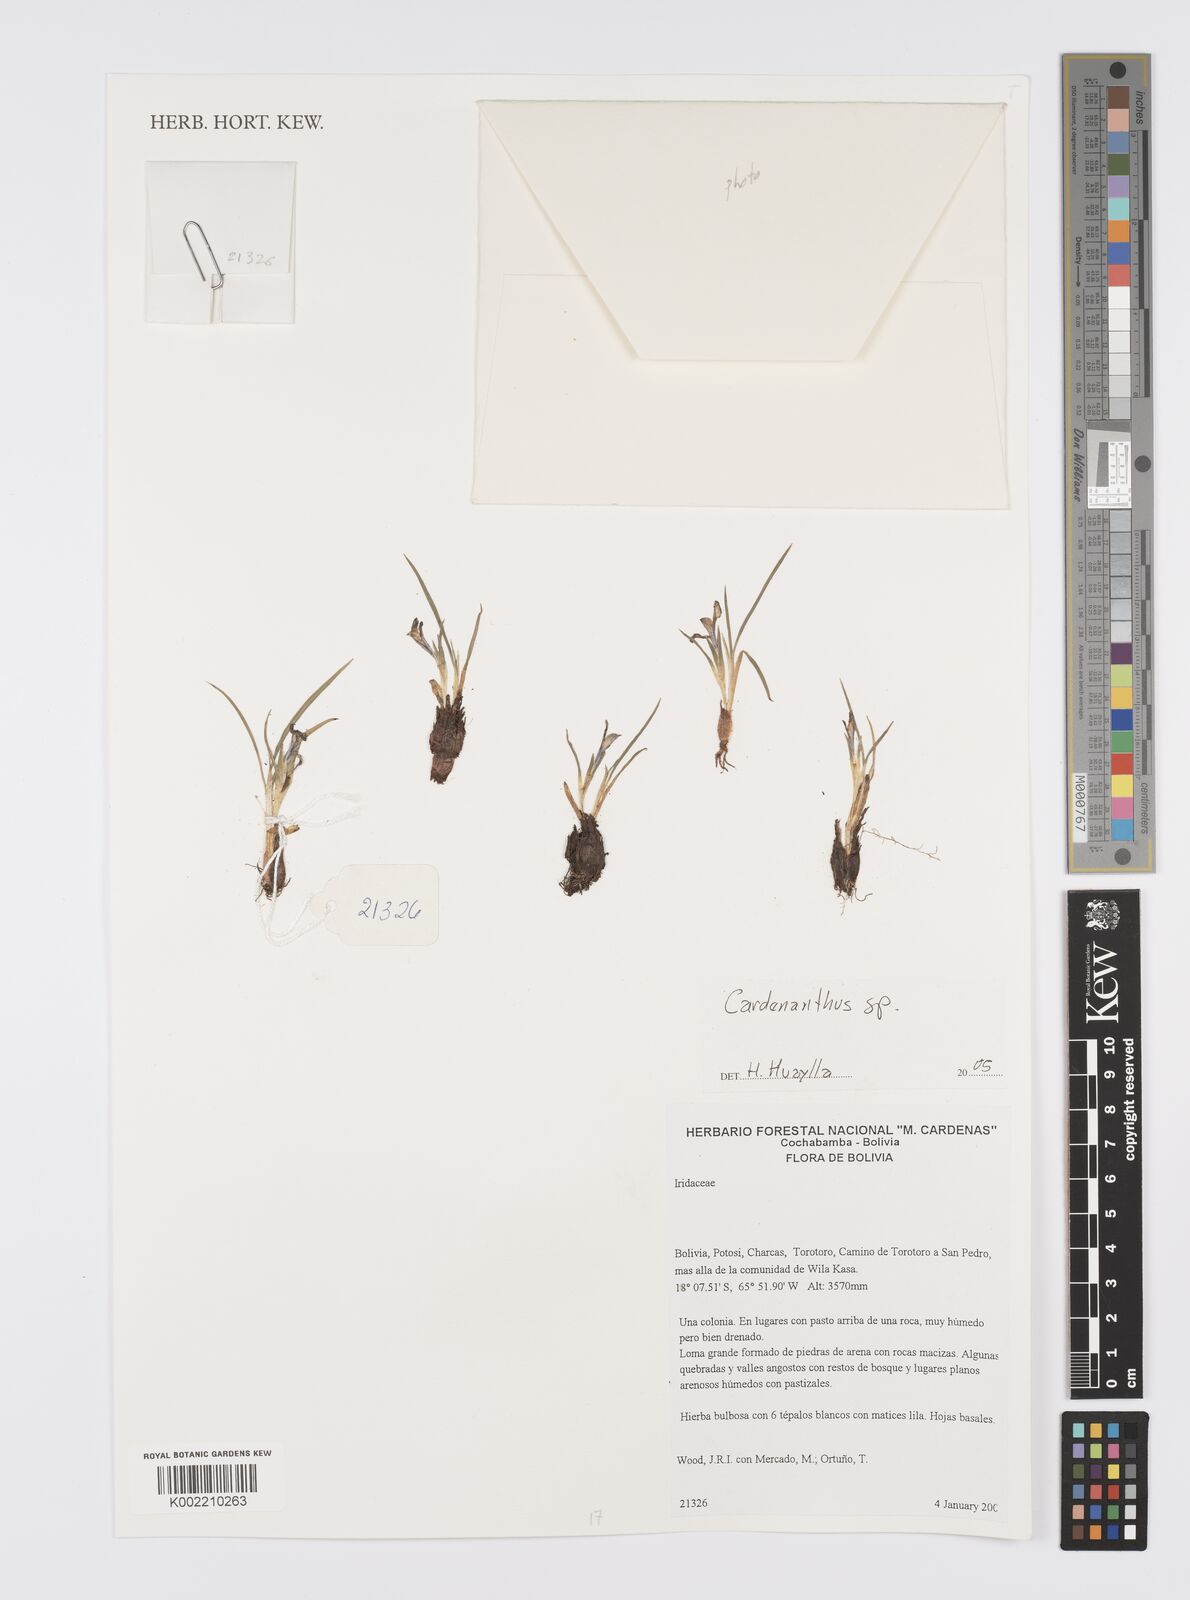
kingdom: Plantae
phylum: Tracheophyta
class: Liliopsida
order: Asparagales
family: Iridaceae
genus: Mastigostyla
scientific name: Mastigostyla
